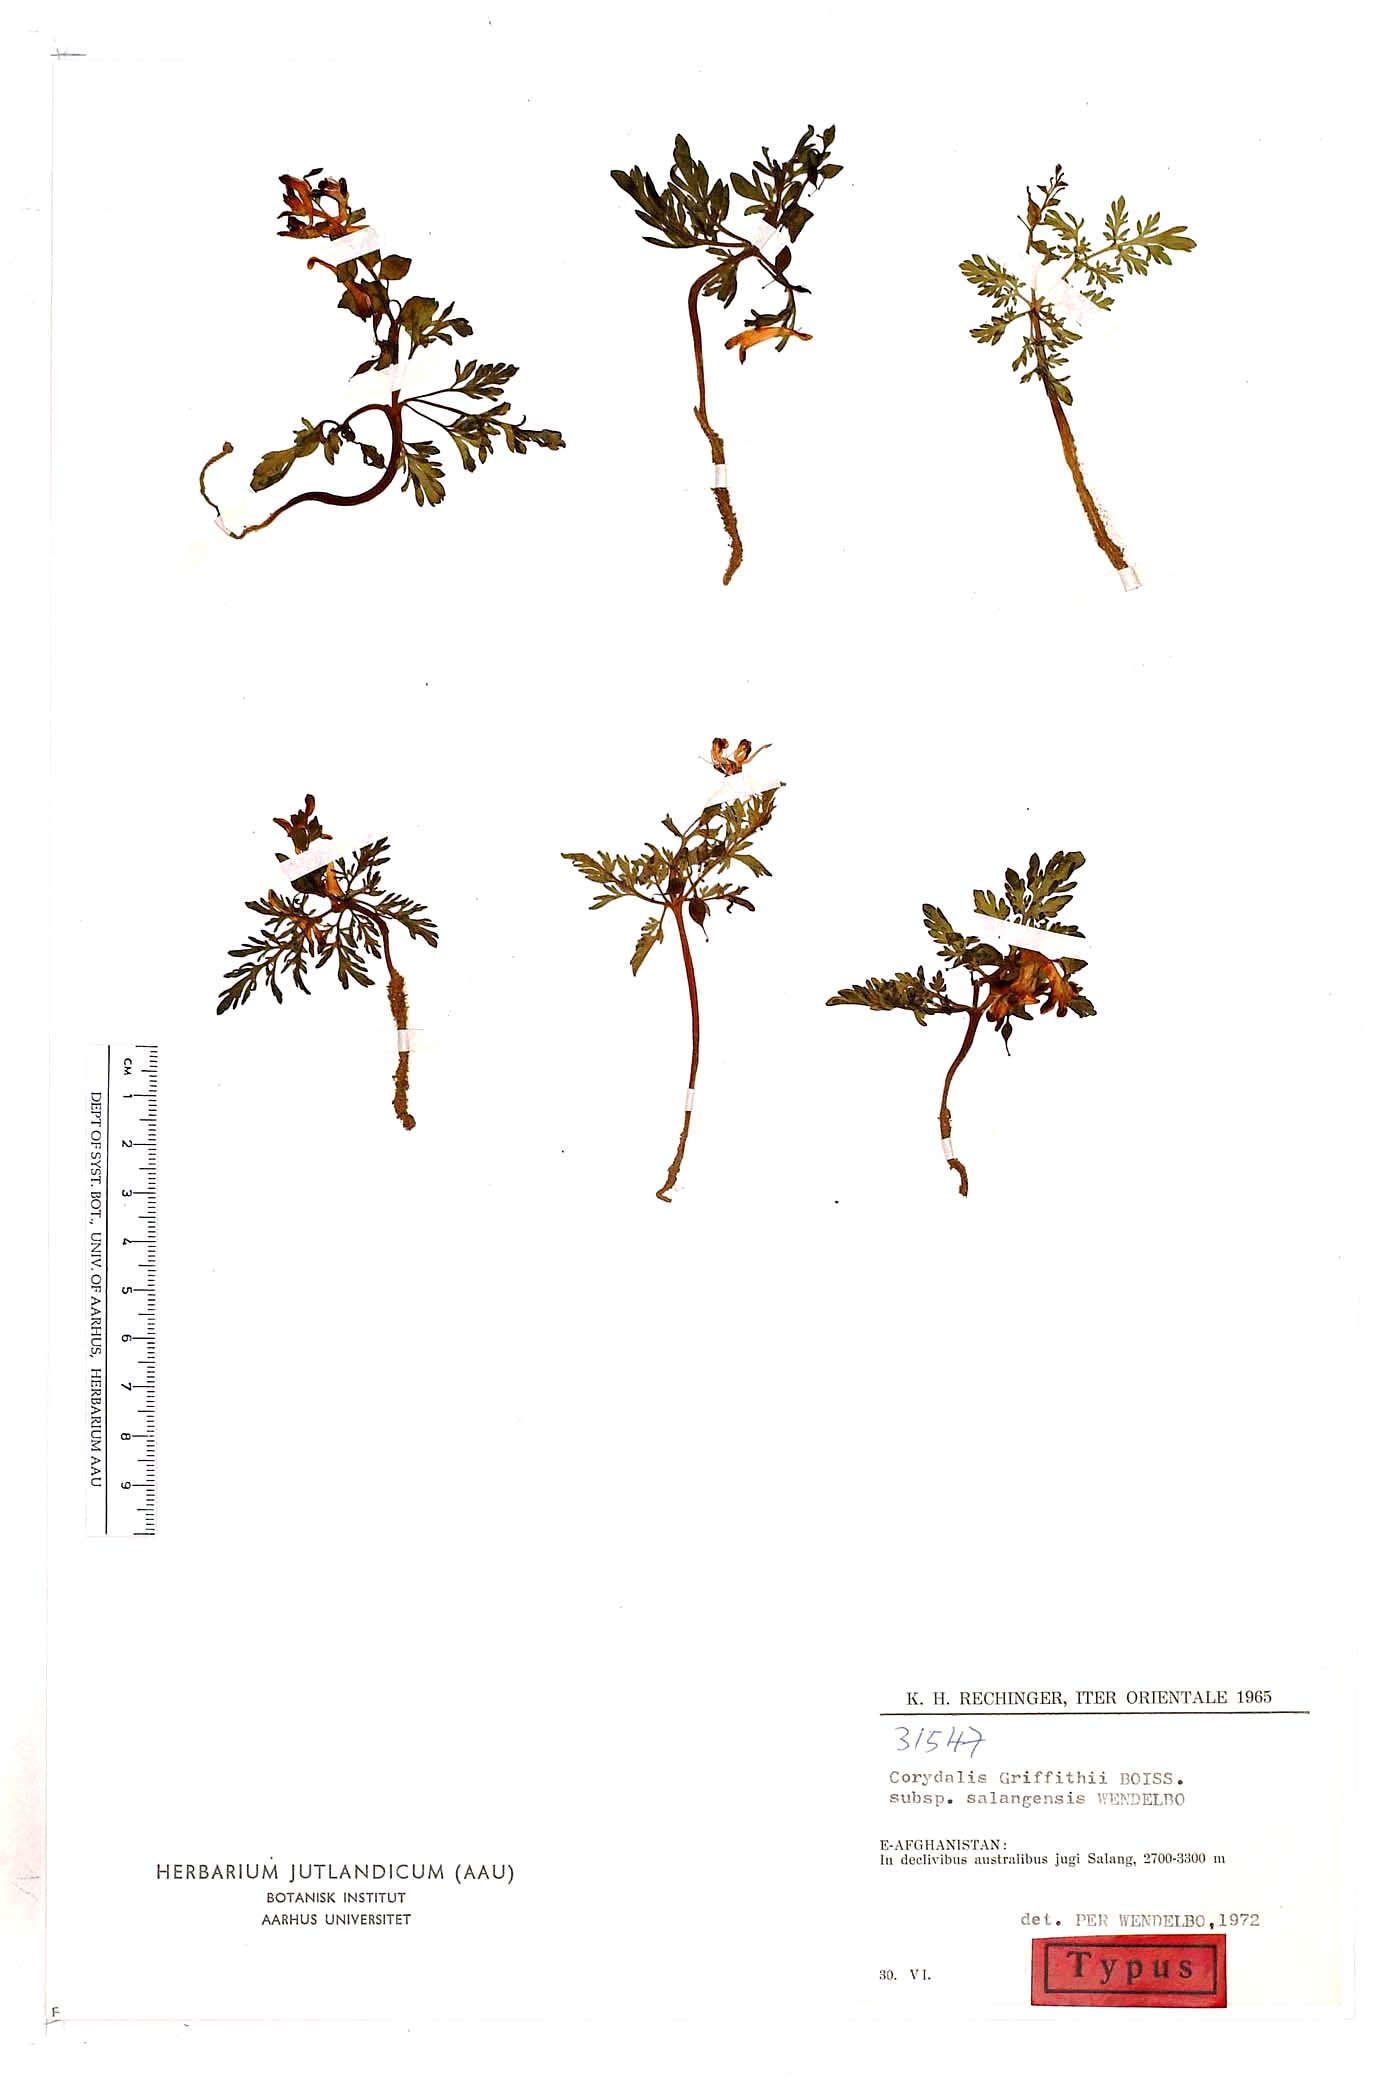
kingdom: Plantae
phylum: Tracheophyta
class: Magnoliopsida
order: Ranunculales
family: Papaveraceae
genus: Corydalis
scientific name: Corydalis griffithii
